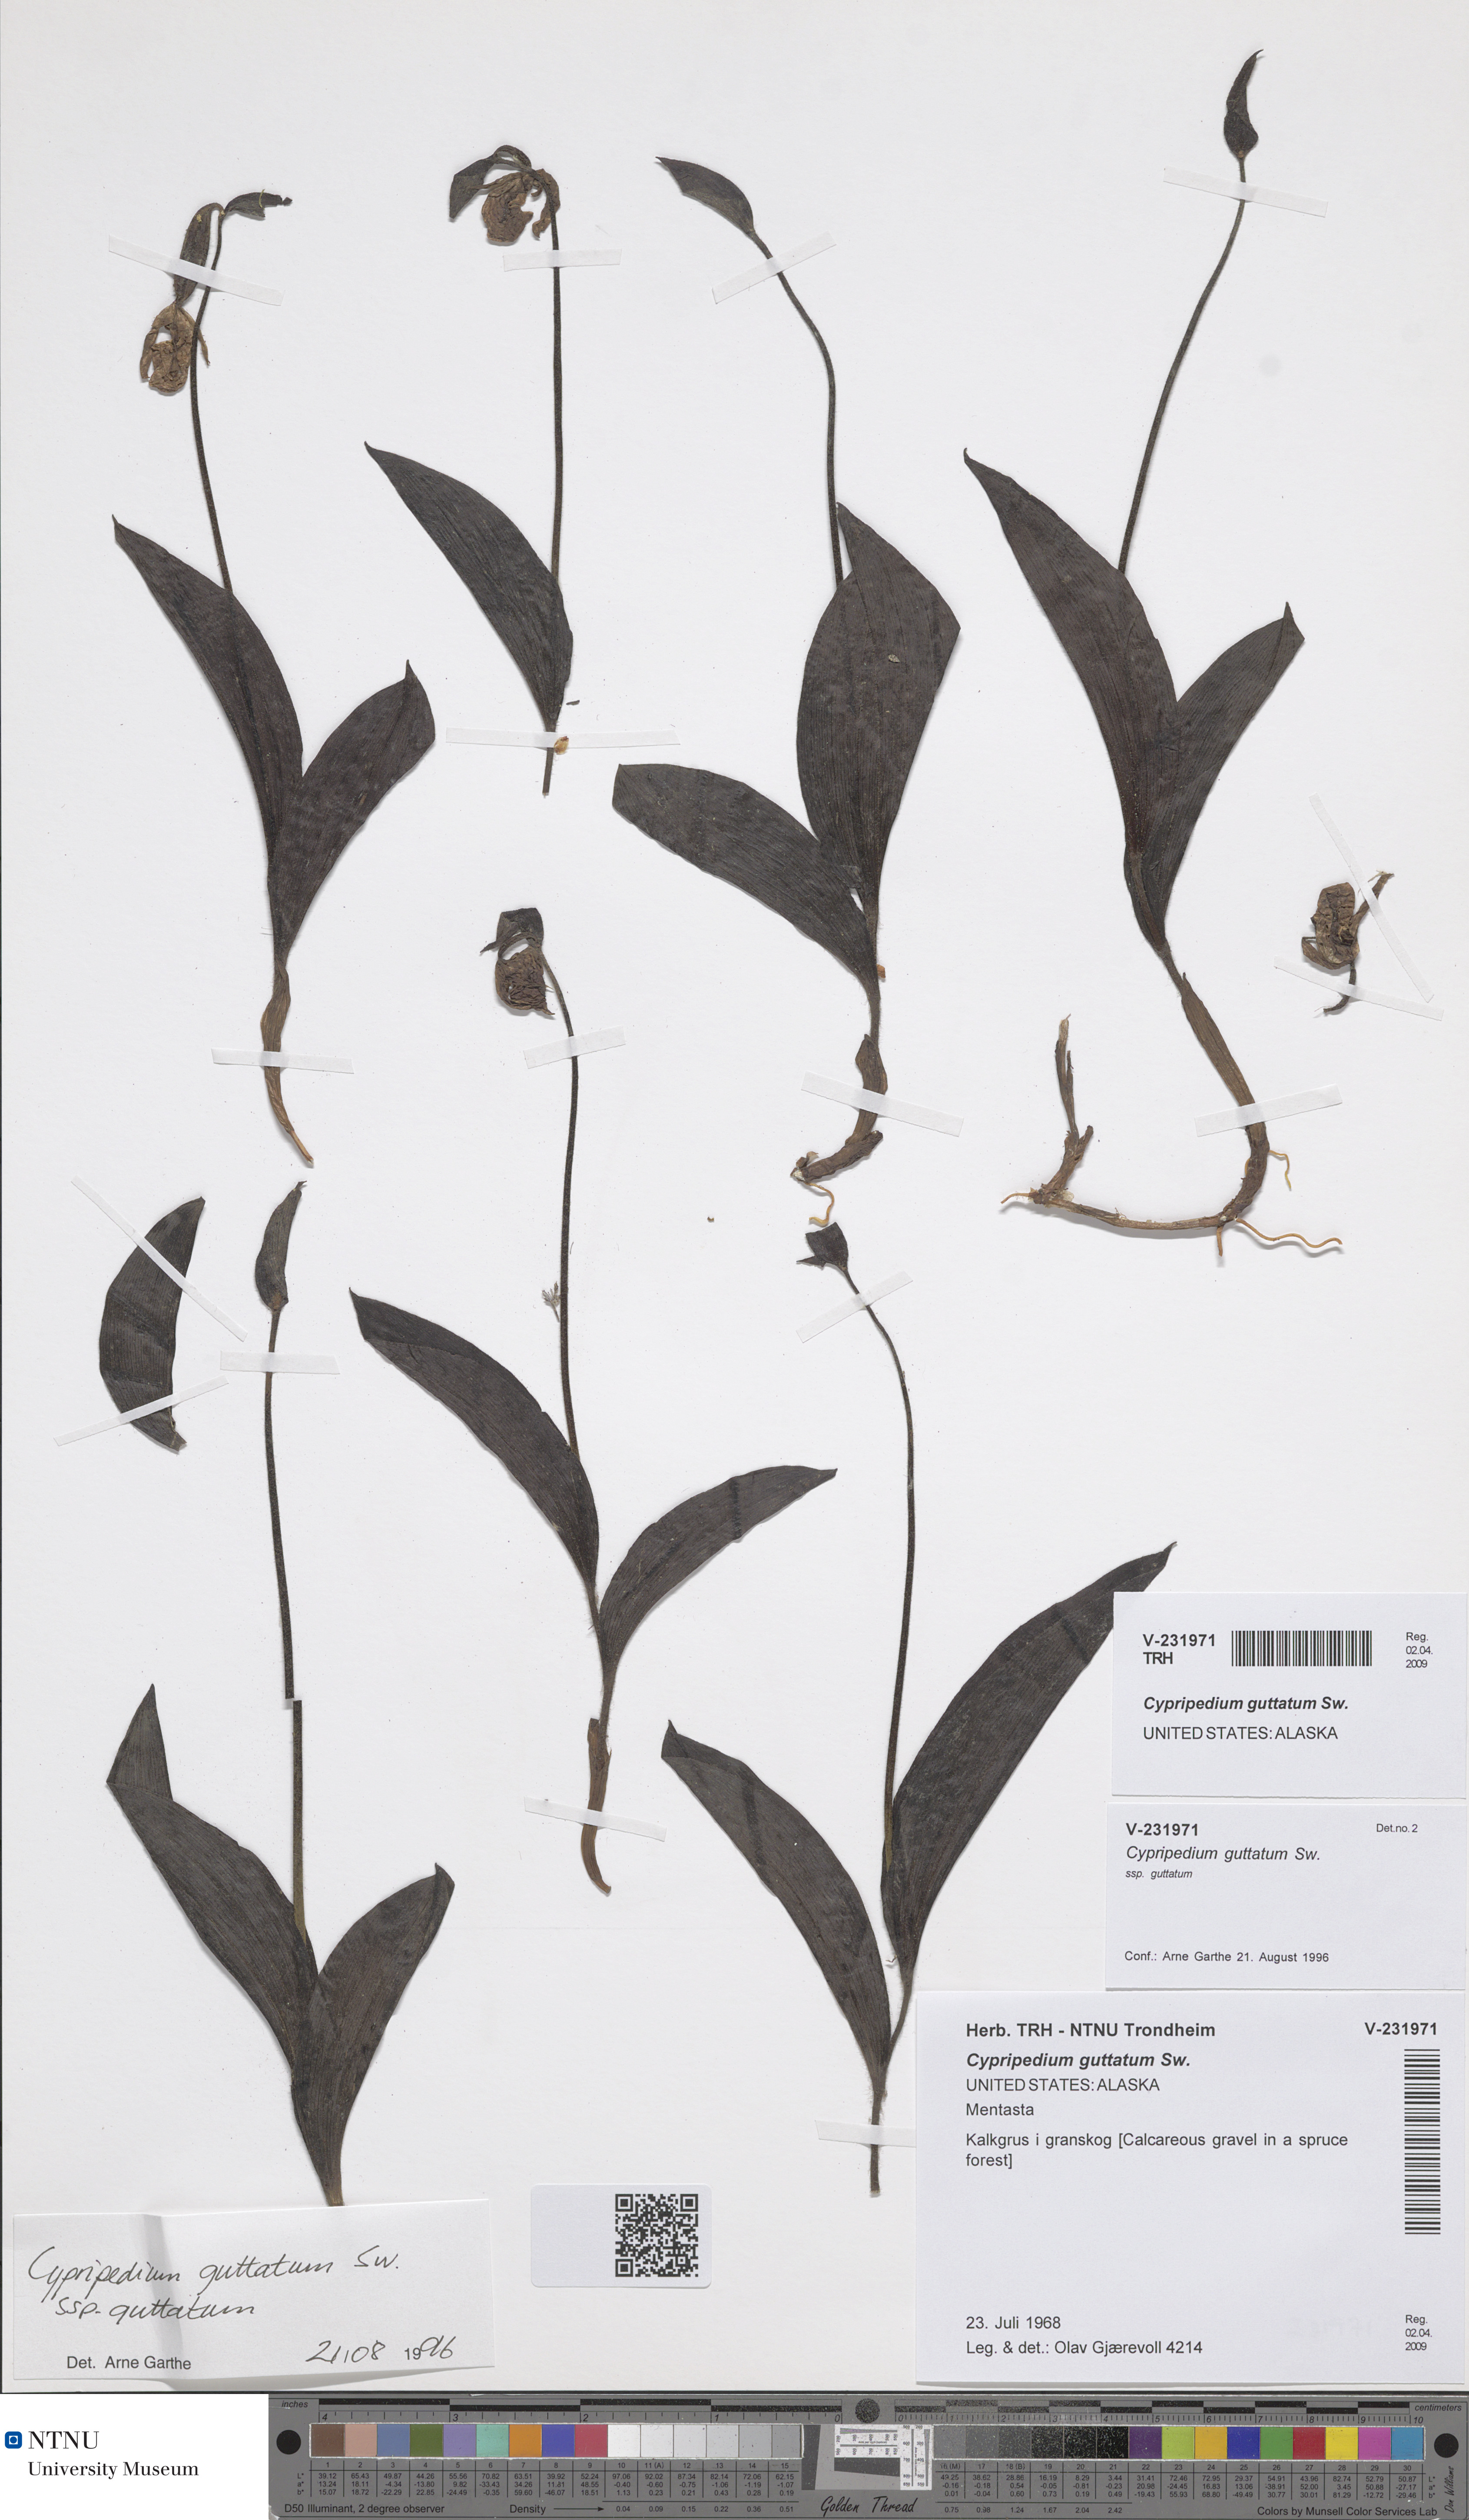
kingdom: Plantae
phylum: Tracheophyta
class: Liliopsida
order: Asparagales
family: Orchidaceae
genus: Cypripedium
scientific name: Cypripedium guttatum
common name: Pink lady slipper
